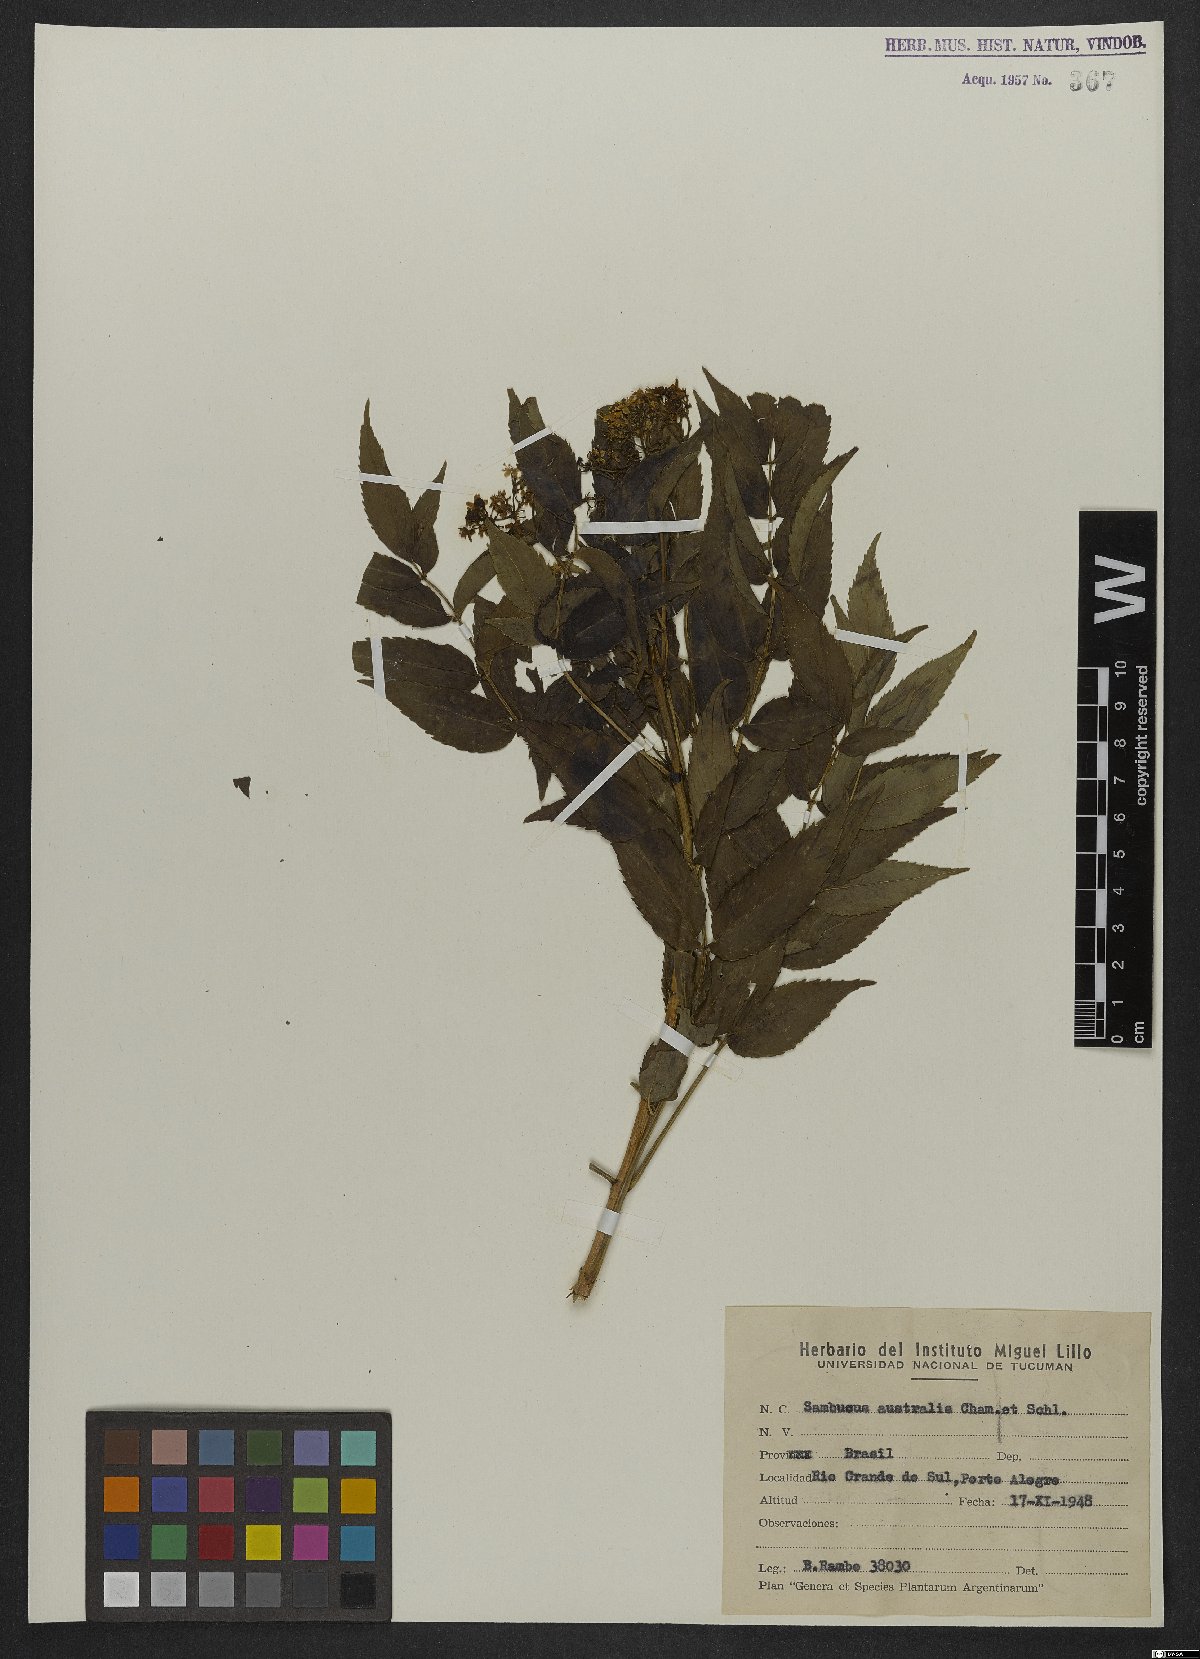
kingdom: Plantae
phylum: Tracheophyta
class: Magnoliopsida
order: Dipsacales
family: Viburnaceae
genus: Sambucus
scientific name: Sambucus australis
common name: Southern elder
